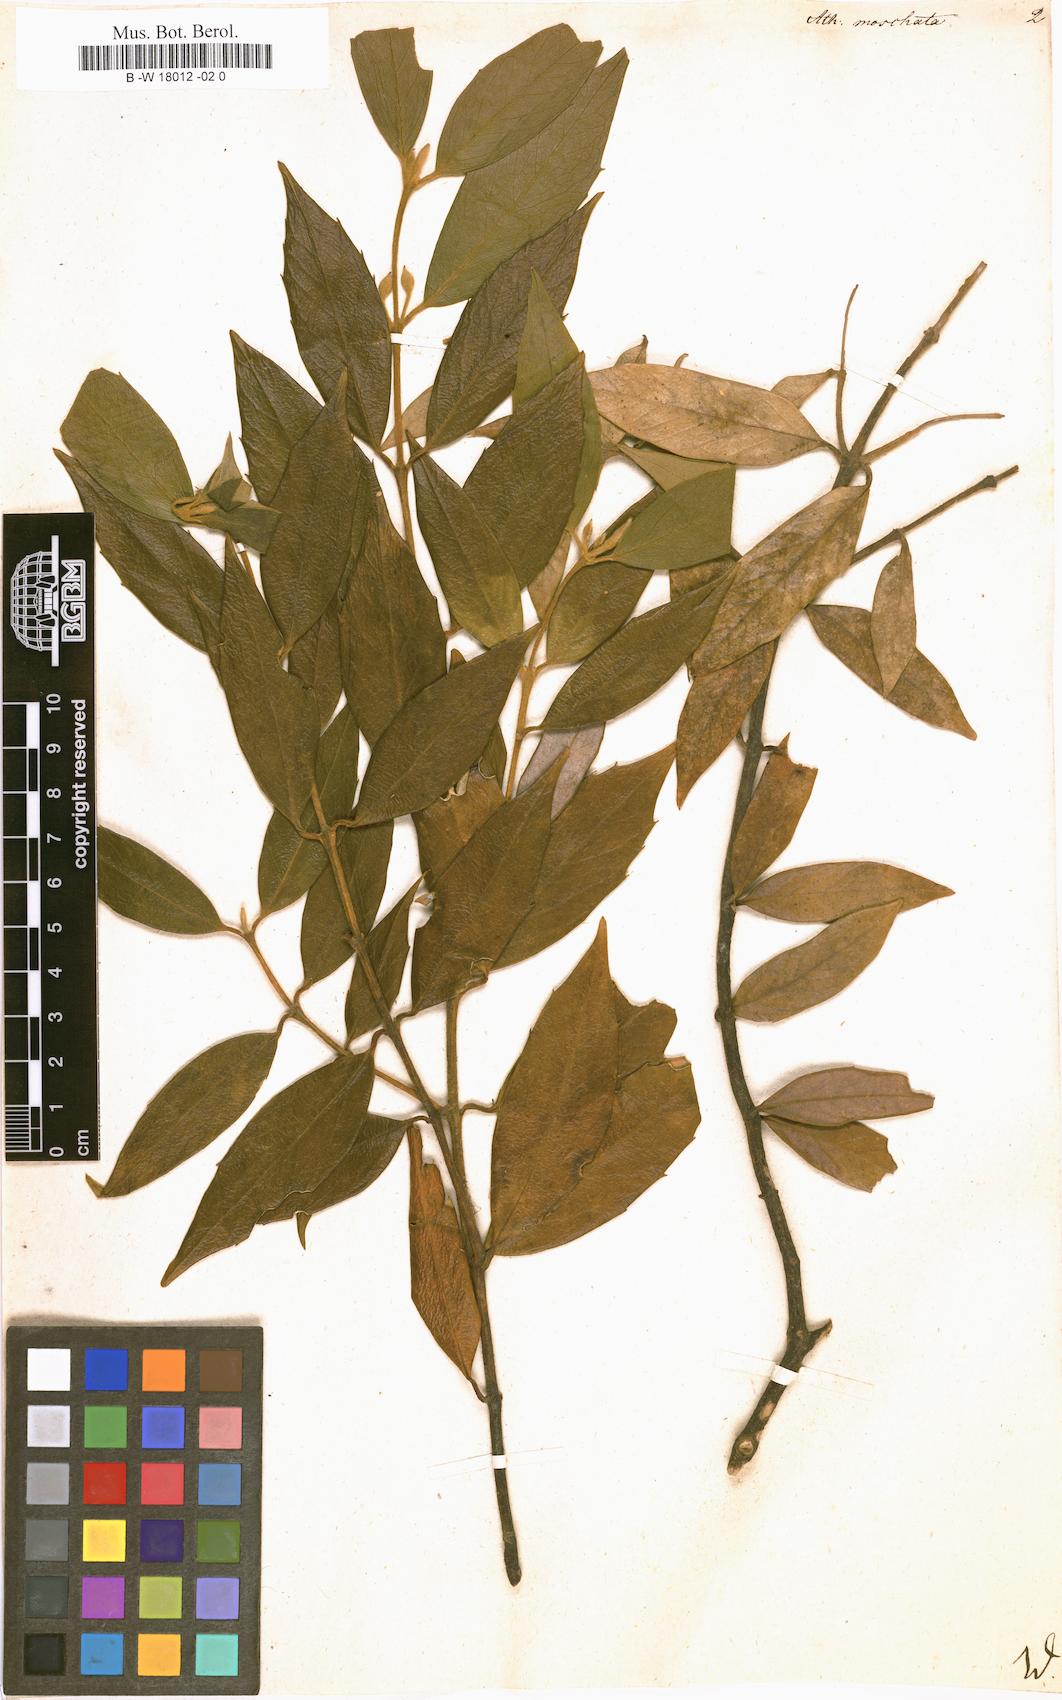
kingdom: Plantae
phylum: Tracheophyta
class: Magnoliopsida
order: Laurales
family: Atherospermataceae
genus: Atherosperma
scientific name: Atherosperma moschatum
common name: Tasmanian-sassafras
